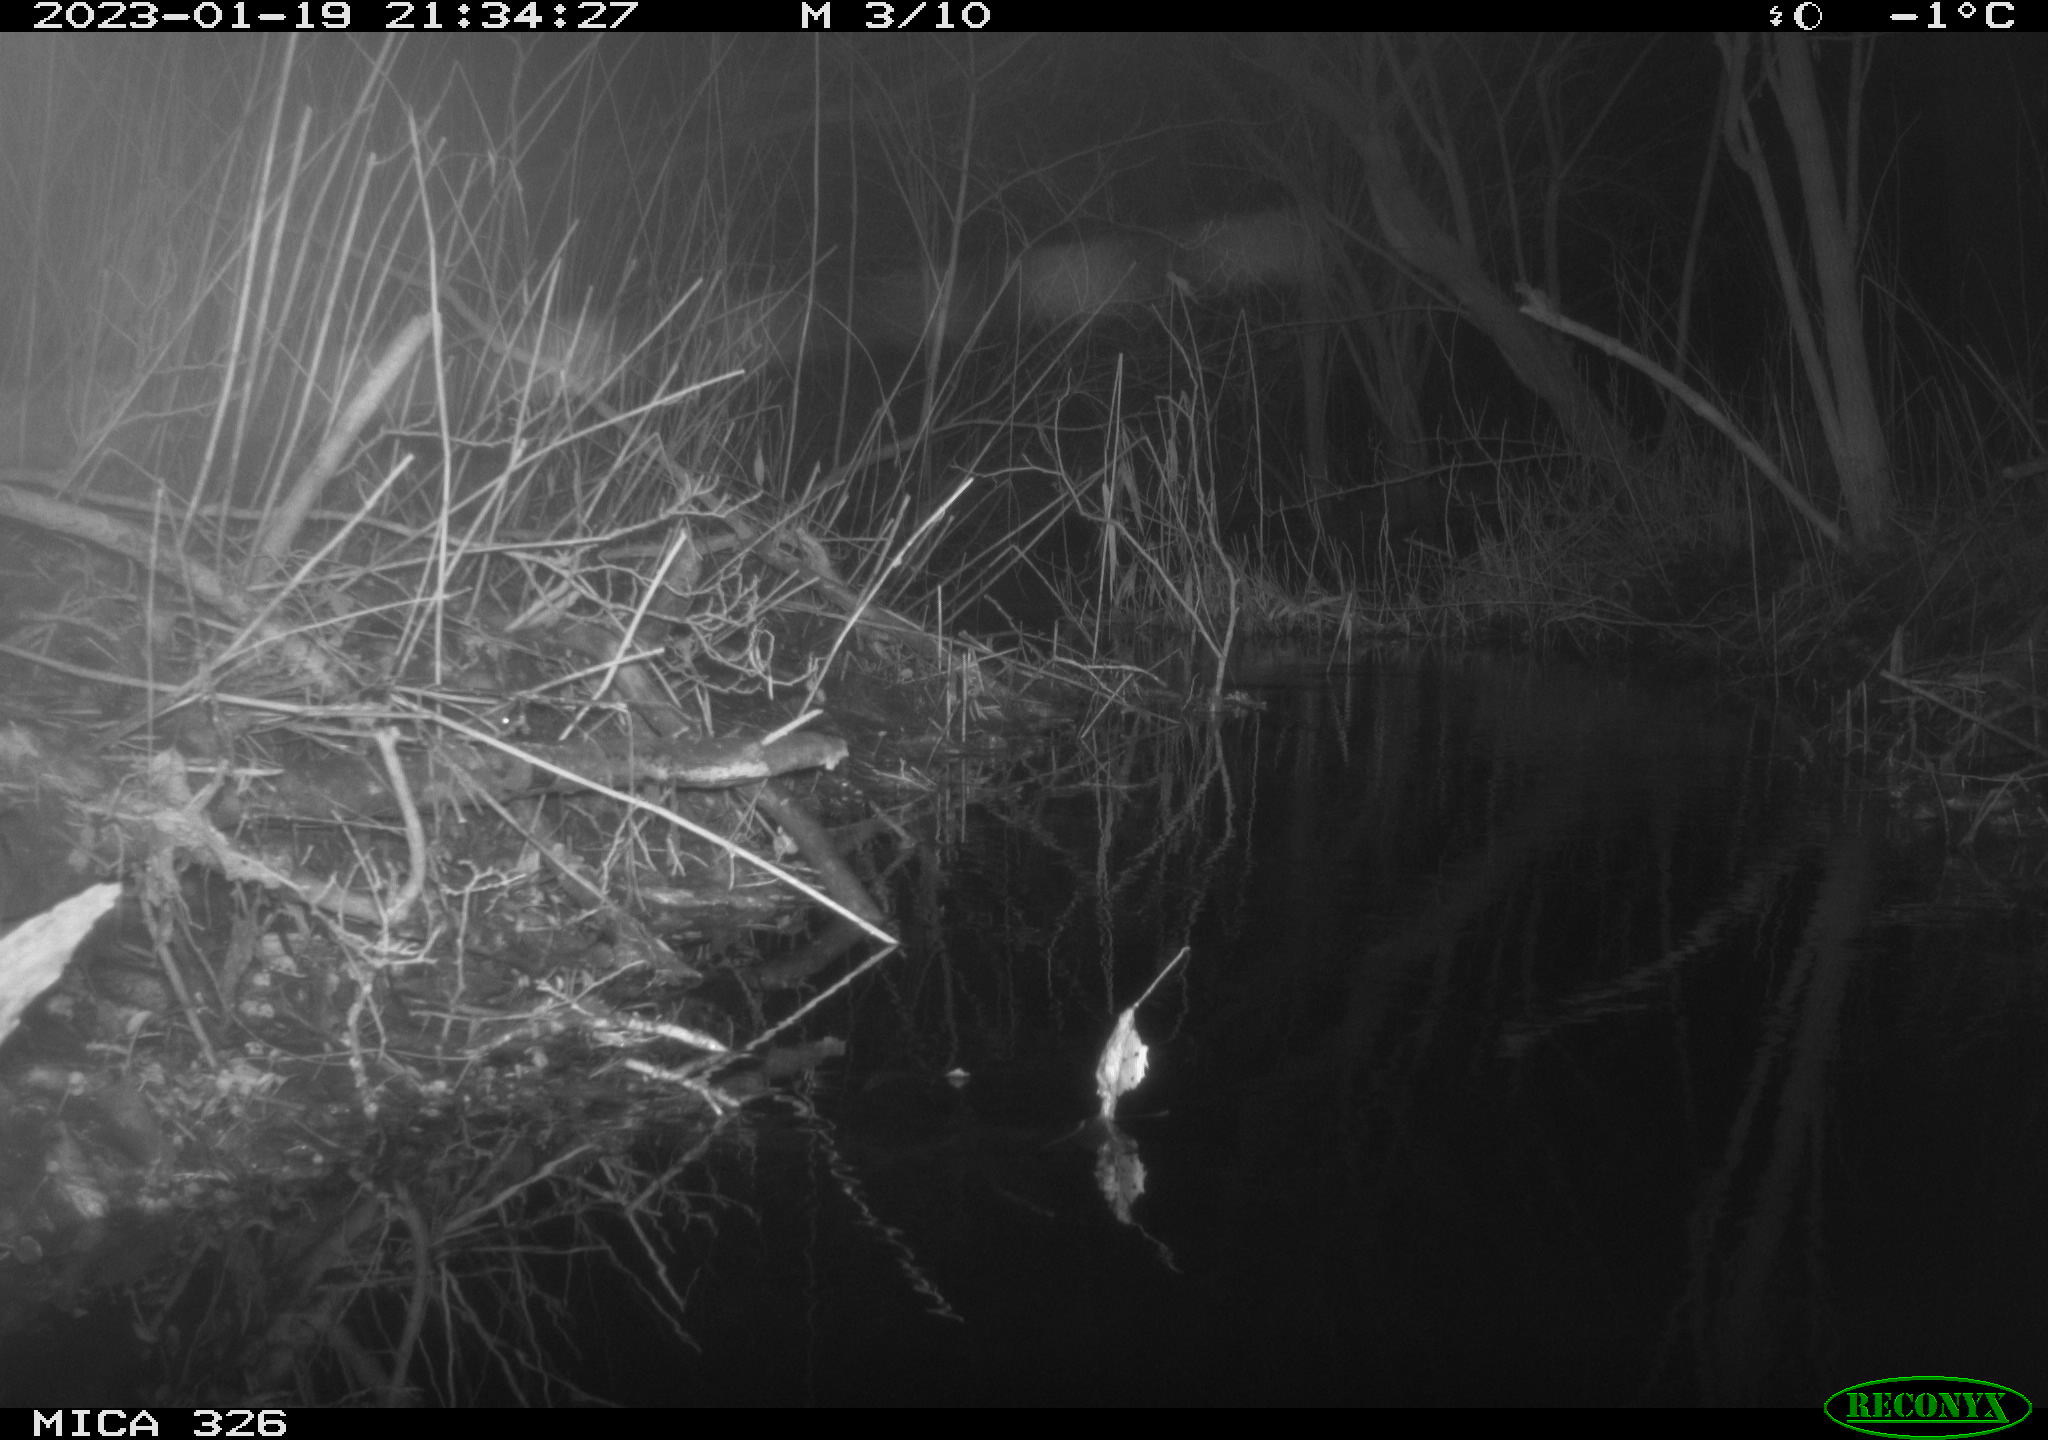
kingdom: Animalia
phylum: Chordata
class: Mammalia
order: Rodentia
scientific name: Rodentia
